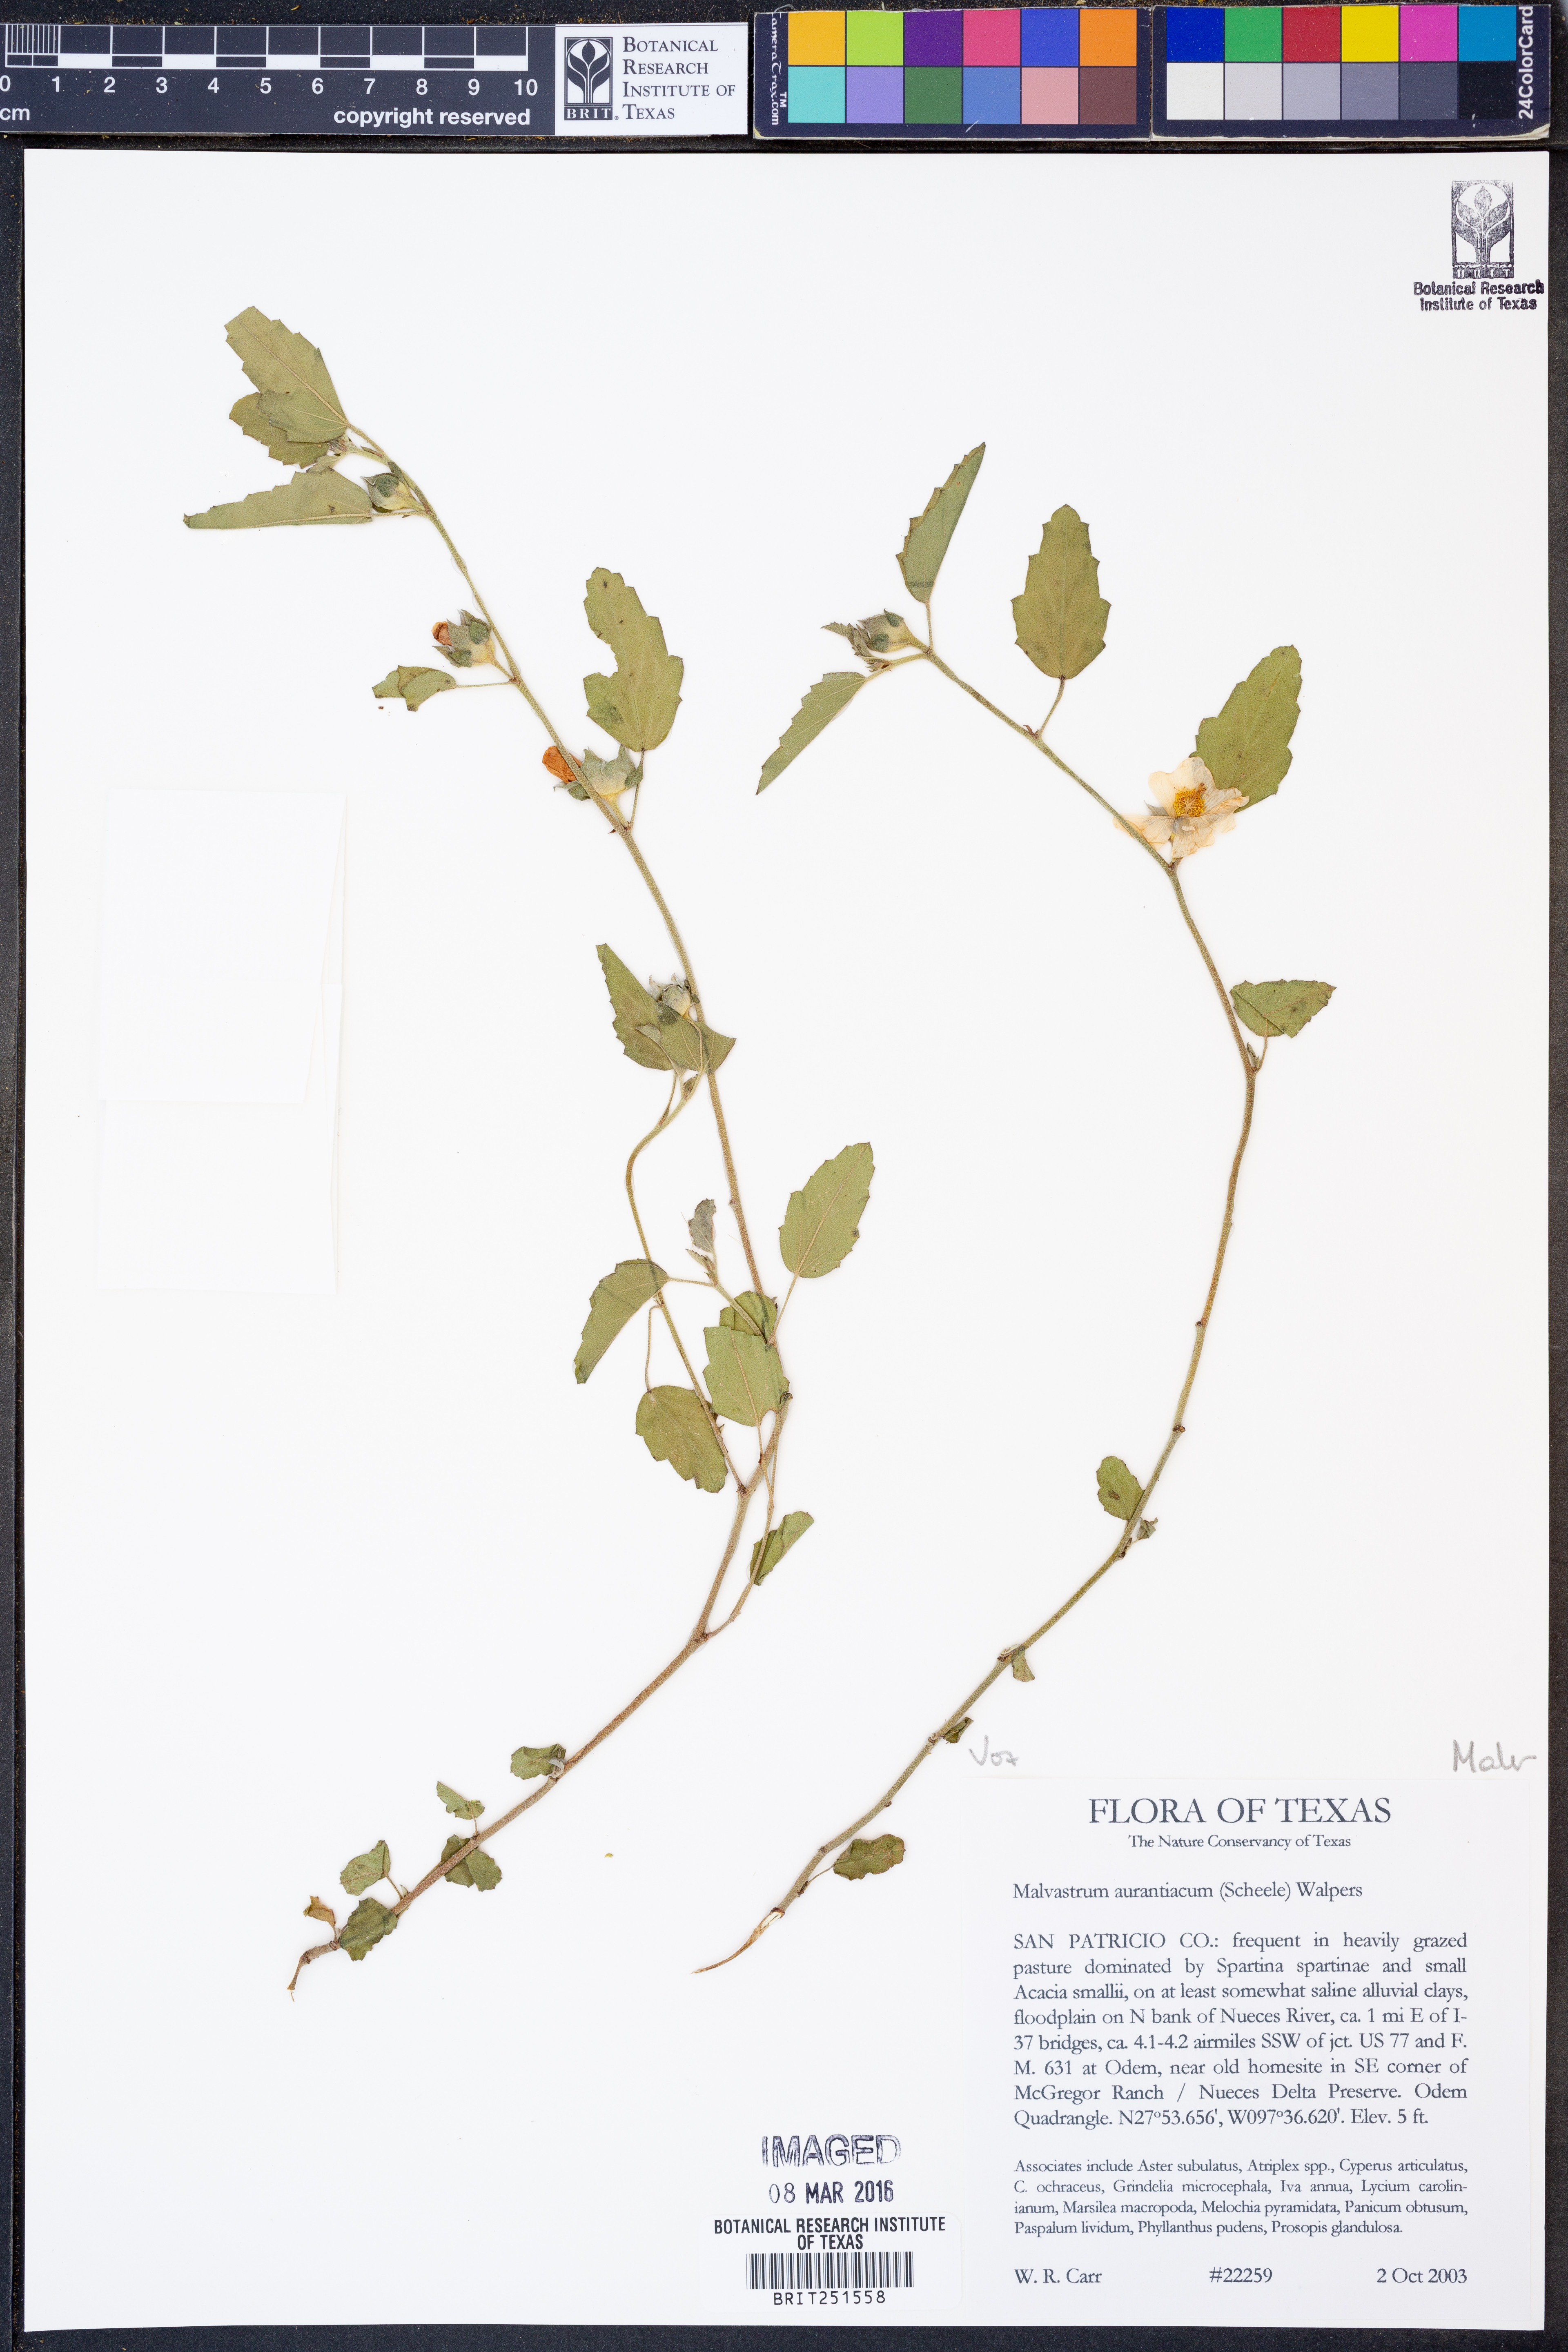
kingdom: Plantae
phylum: Tracheophyta
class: Magnoliopsida
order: Malvales
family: Malvaceae
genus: Malvastrum
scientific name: Malvastrum aurantiacum
